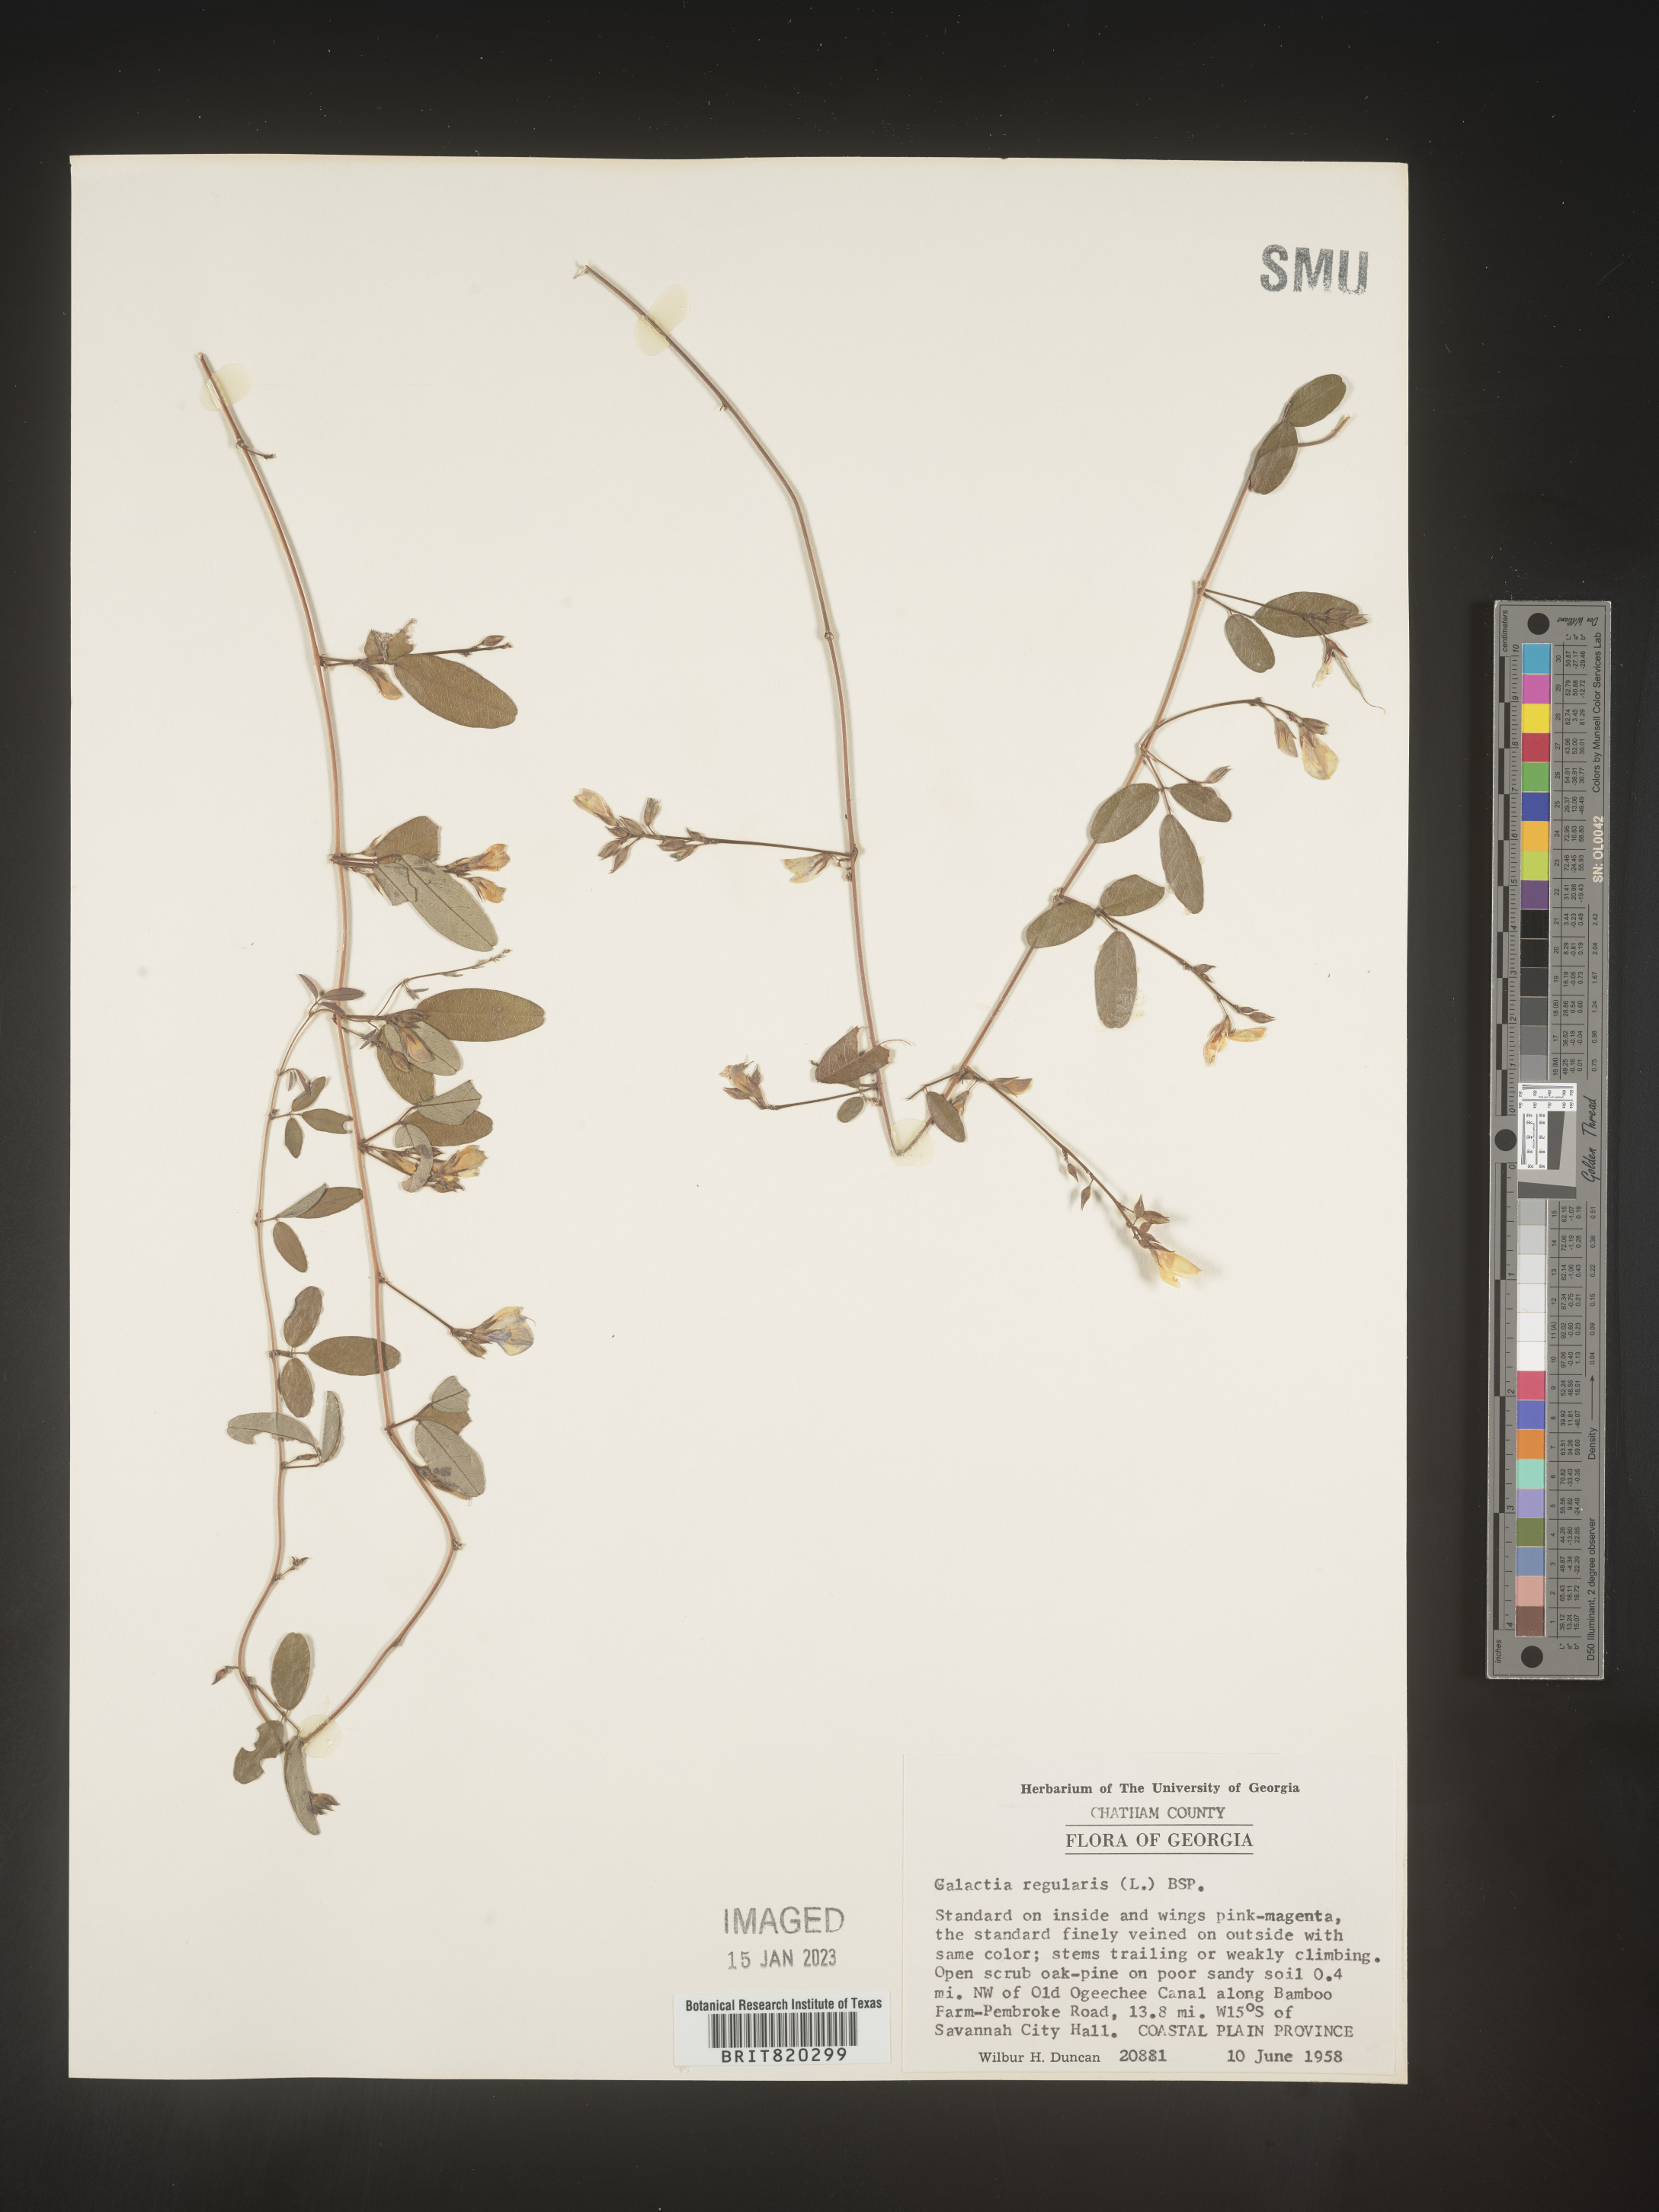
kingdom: Plantae
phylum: Tracheophyta
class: Magnoliopsida
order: Fabales
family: Fabaceae
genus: Galactia
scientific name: Galactia regularis
